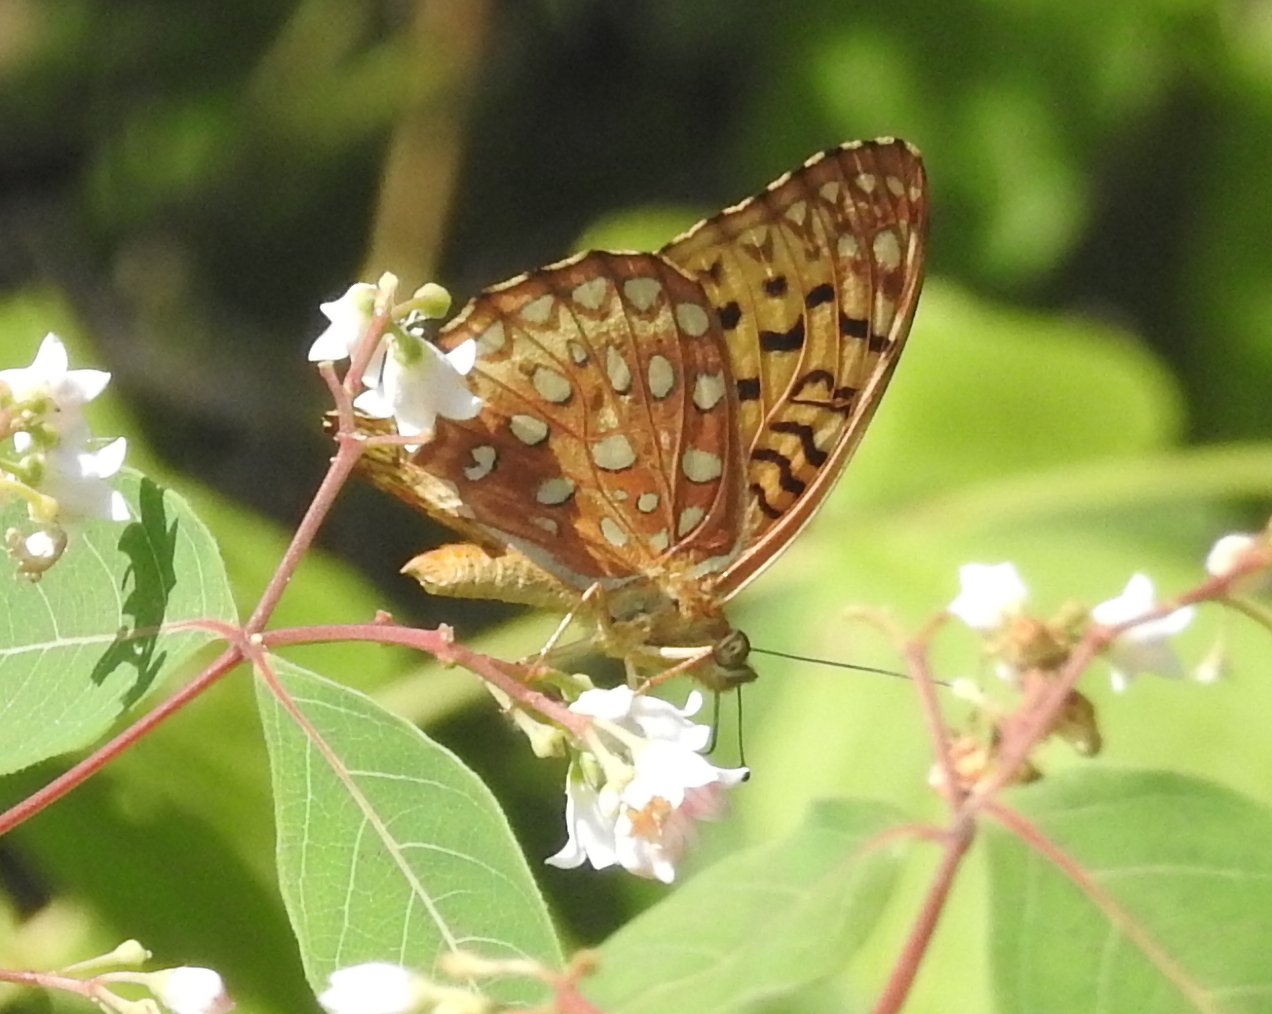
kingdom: Animalia
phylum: Arthropoda
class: Insecta
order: Lepidoptera
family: Nymphalidae
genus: Speyeria
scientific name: Speyeria aphrodite
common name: Aphrodite Fritillary
